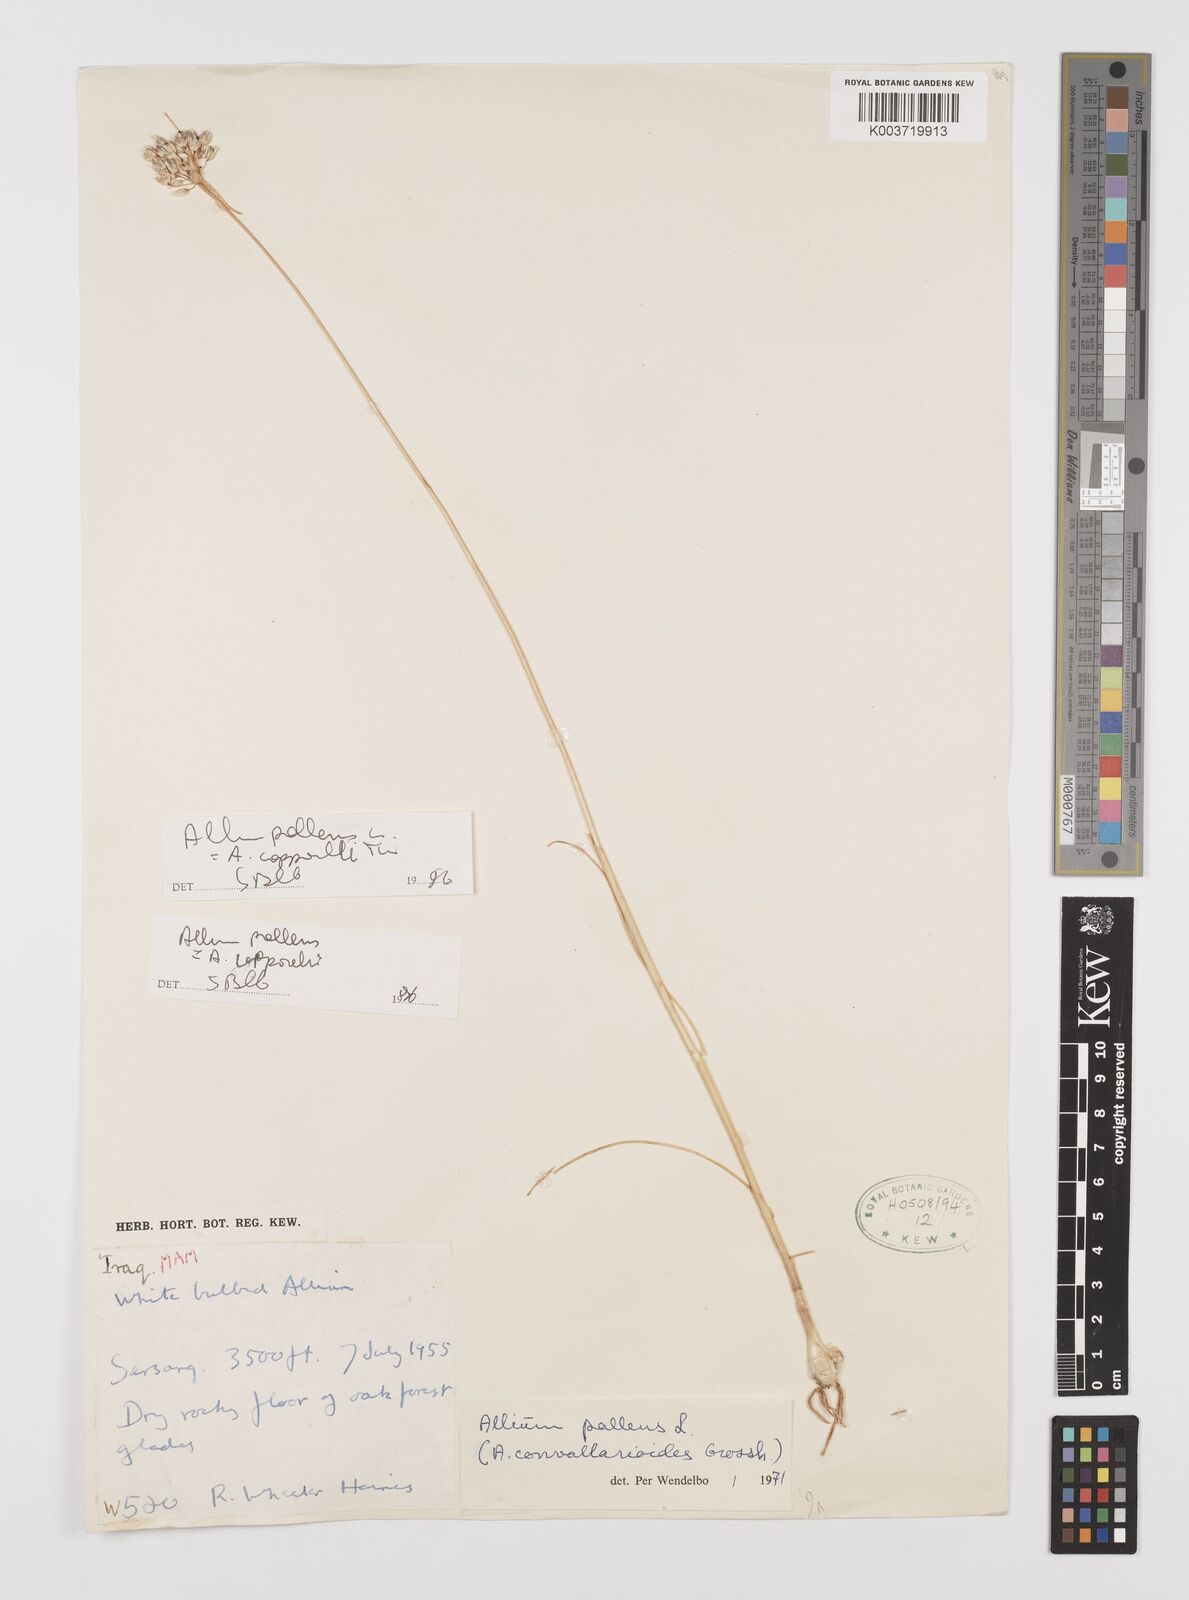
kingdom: Plantae
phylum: Tracheophyta
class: Liliopsida
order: Asparagales
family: Amaryllidaceae
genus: Allium
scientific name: Allium pallens
